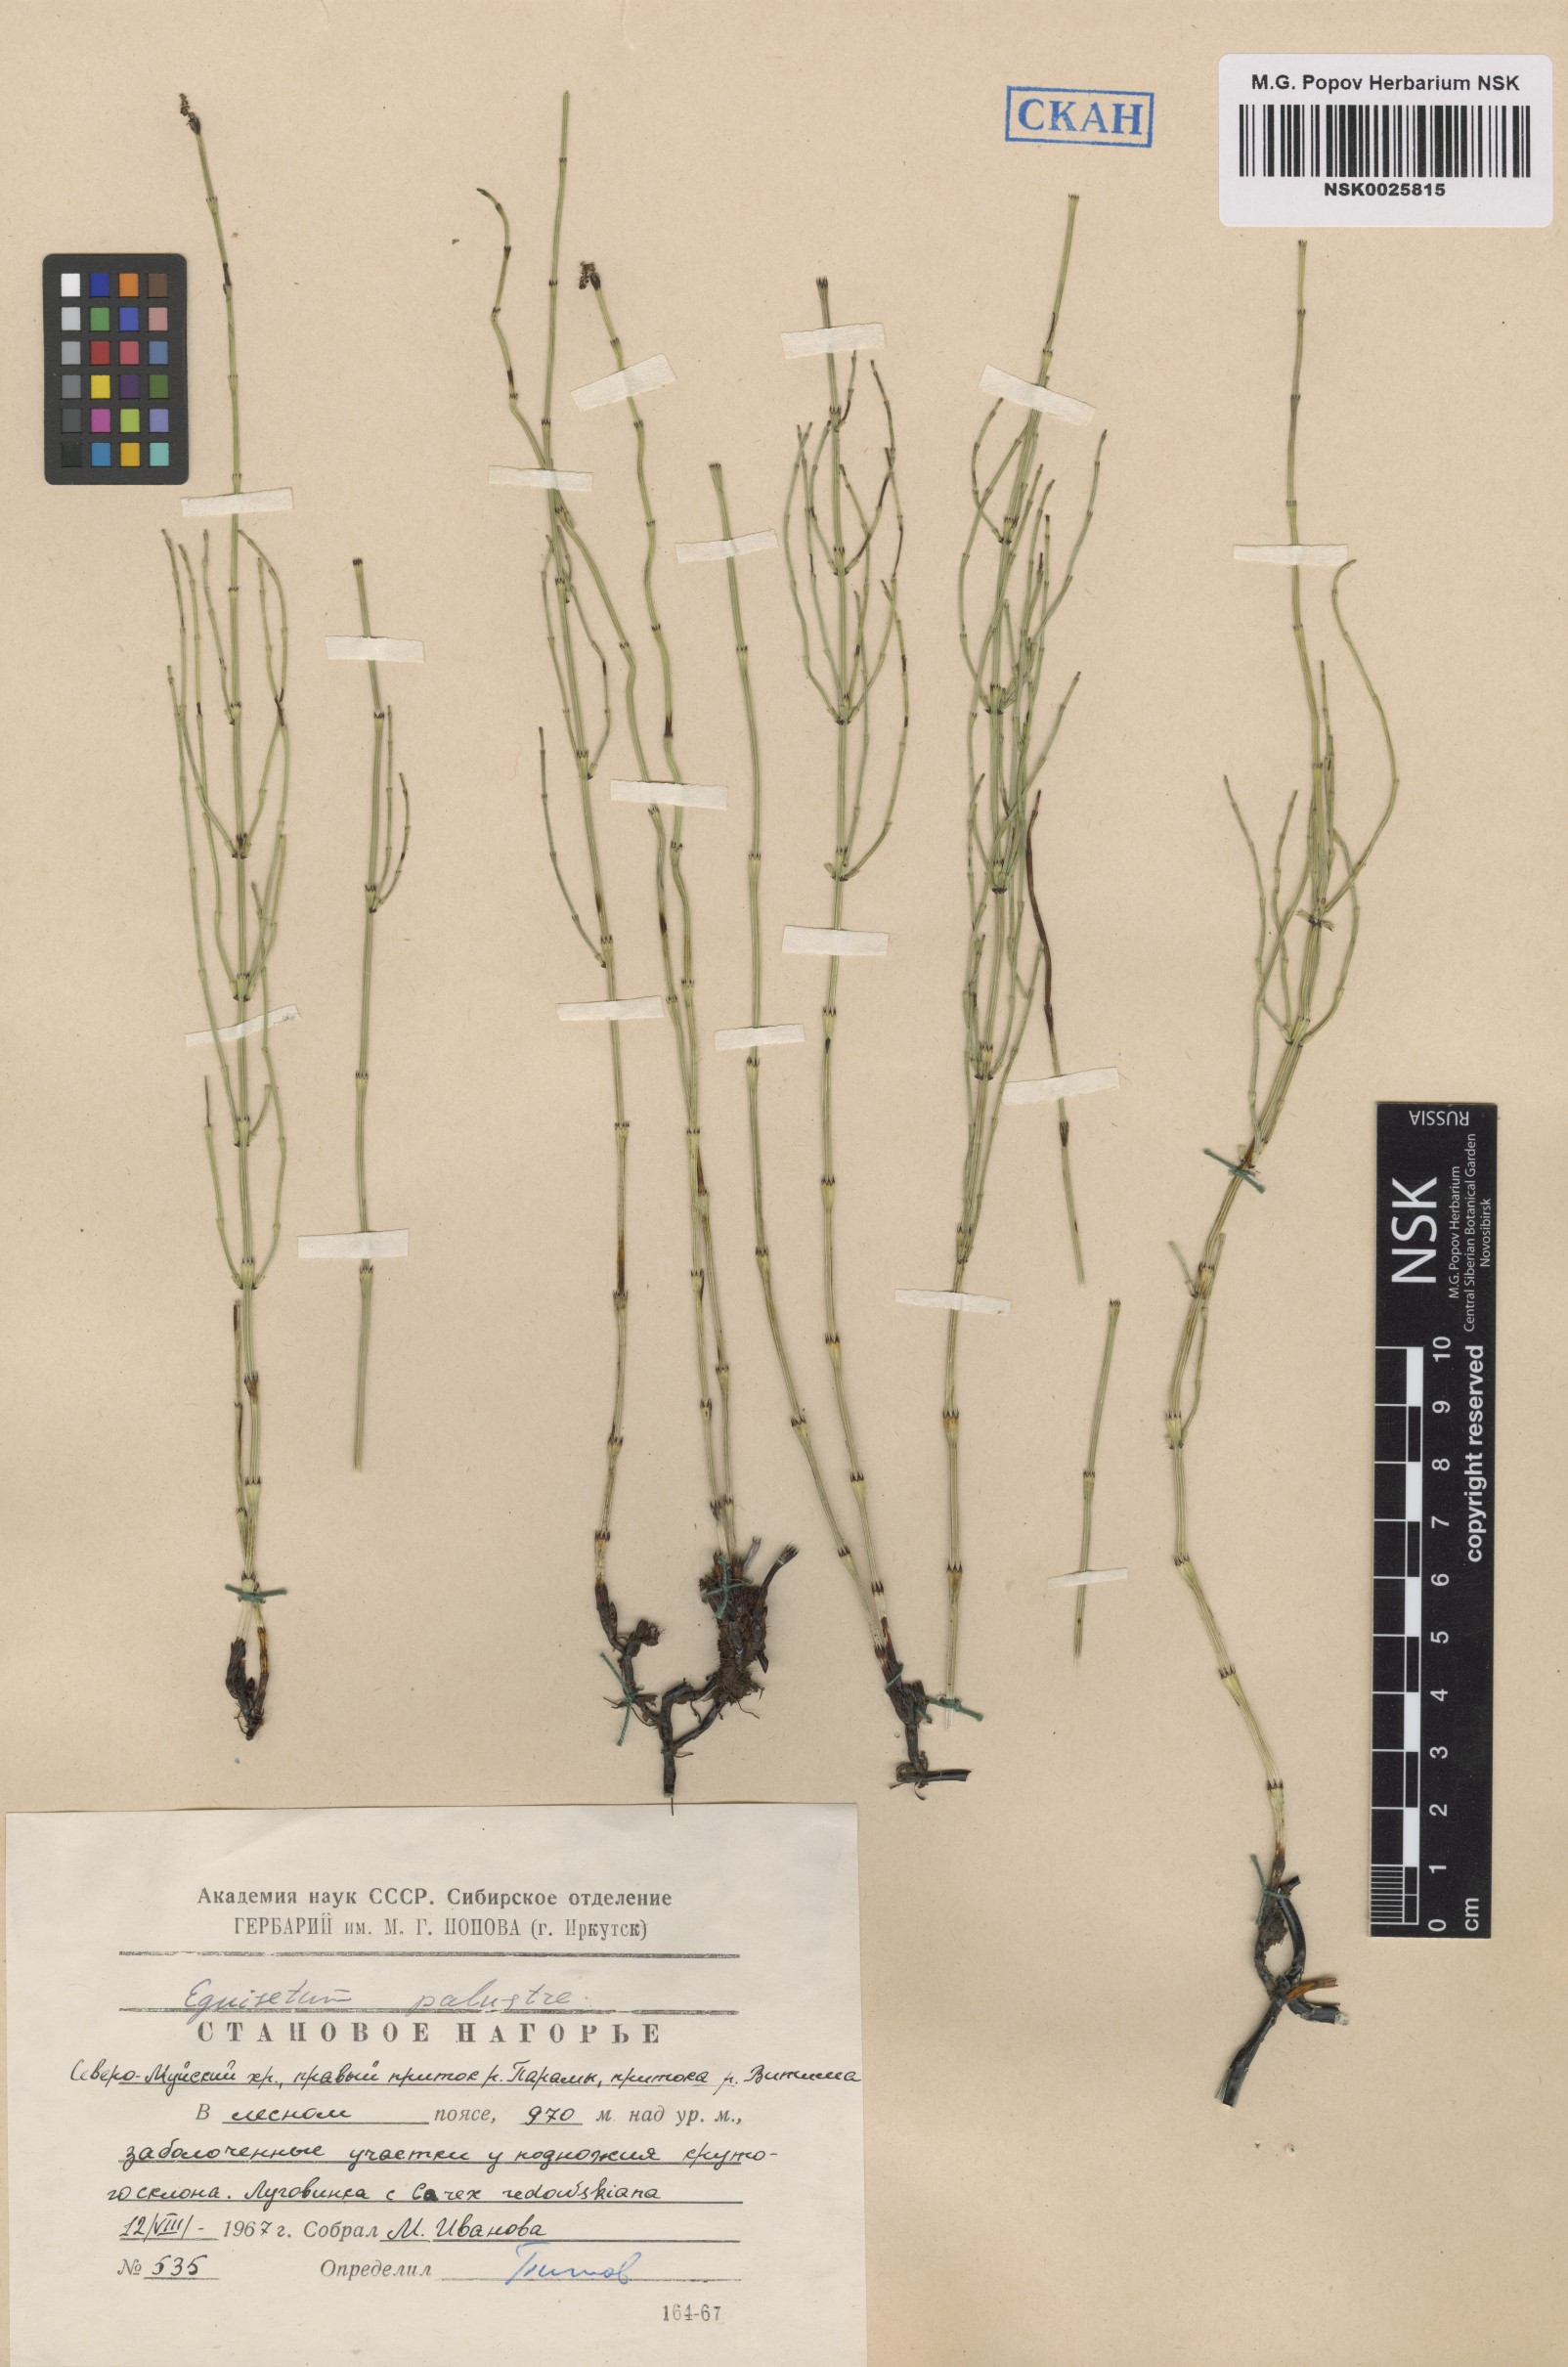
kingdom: Plantae
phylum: Tracheophyta
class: Polypodiopsida
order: Equisetales
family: Equisetaceae
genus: Equisetum
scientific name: Equisetum palustre
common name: Marsh horsetail
